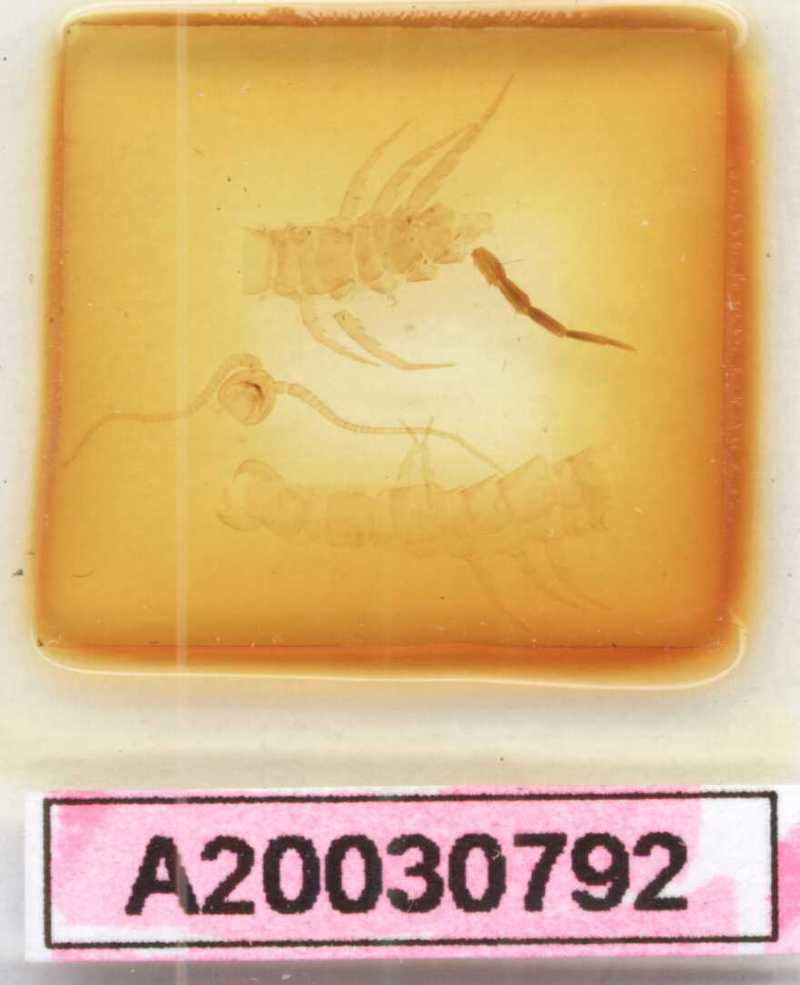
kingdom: Animalia
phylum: Arthropoda
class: Chilopoda
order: Lithobiomorpha
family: Lithobiidae
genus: Lithobius
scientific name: Lithobius pelidnus
